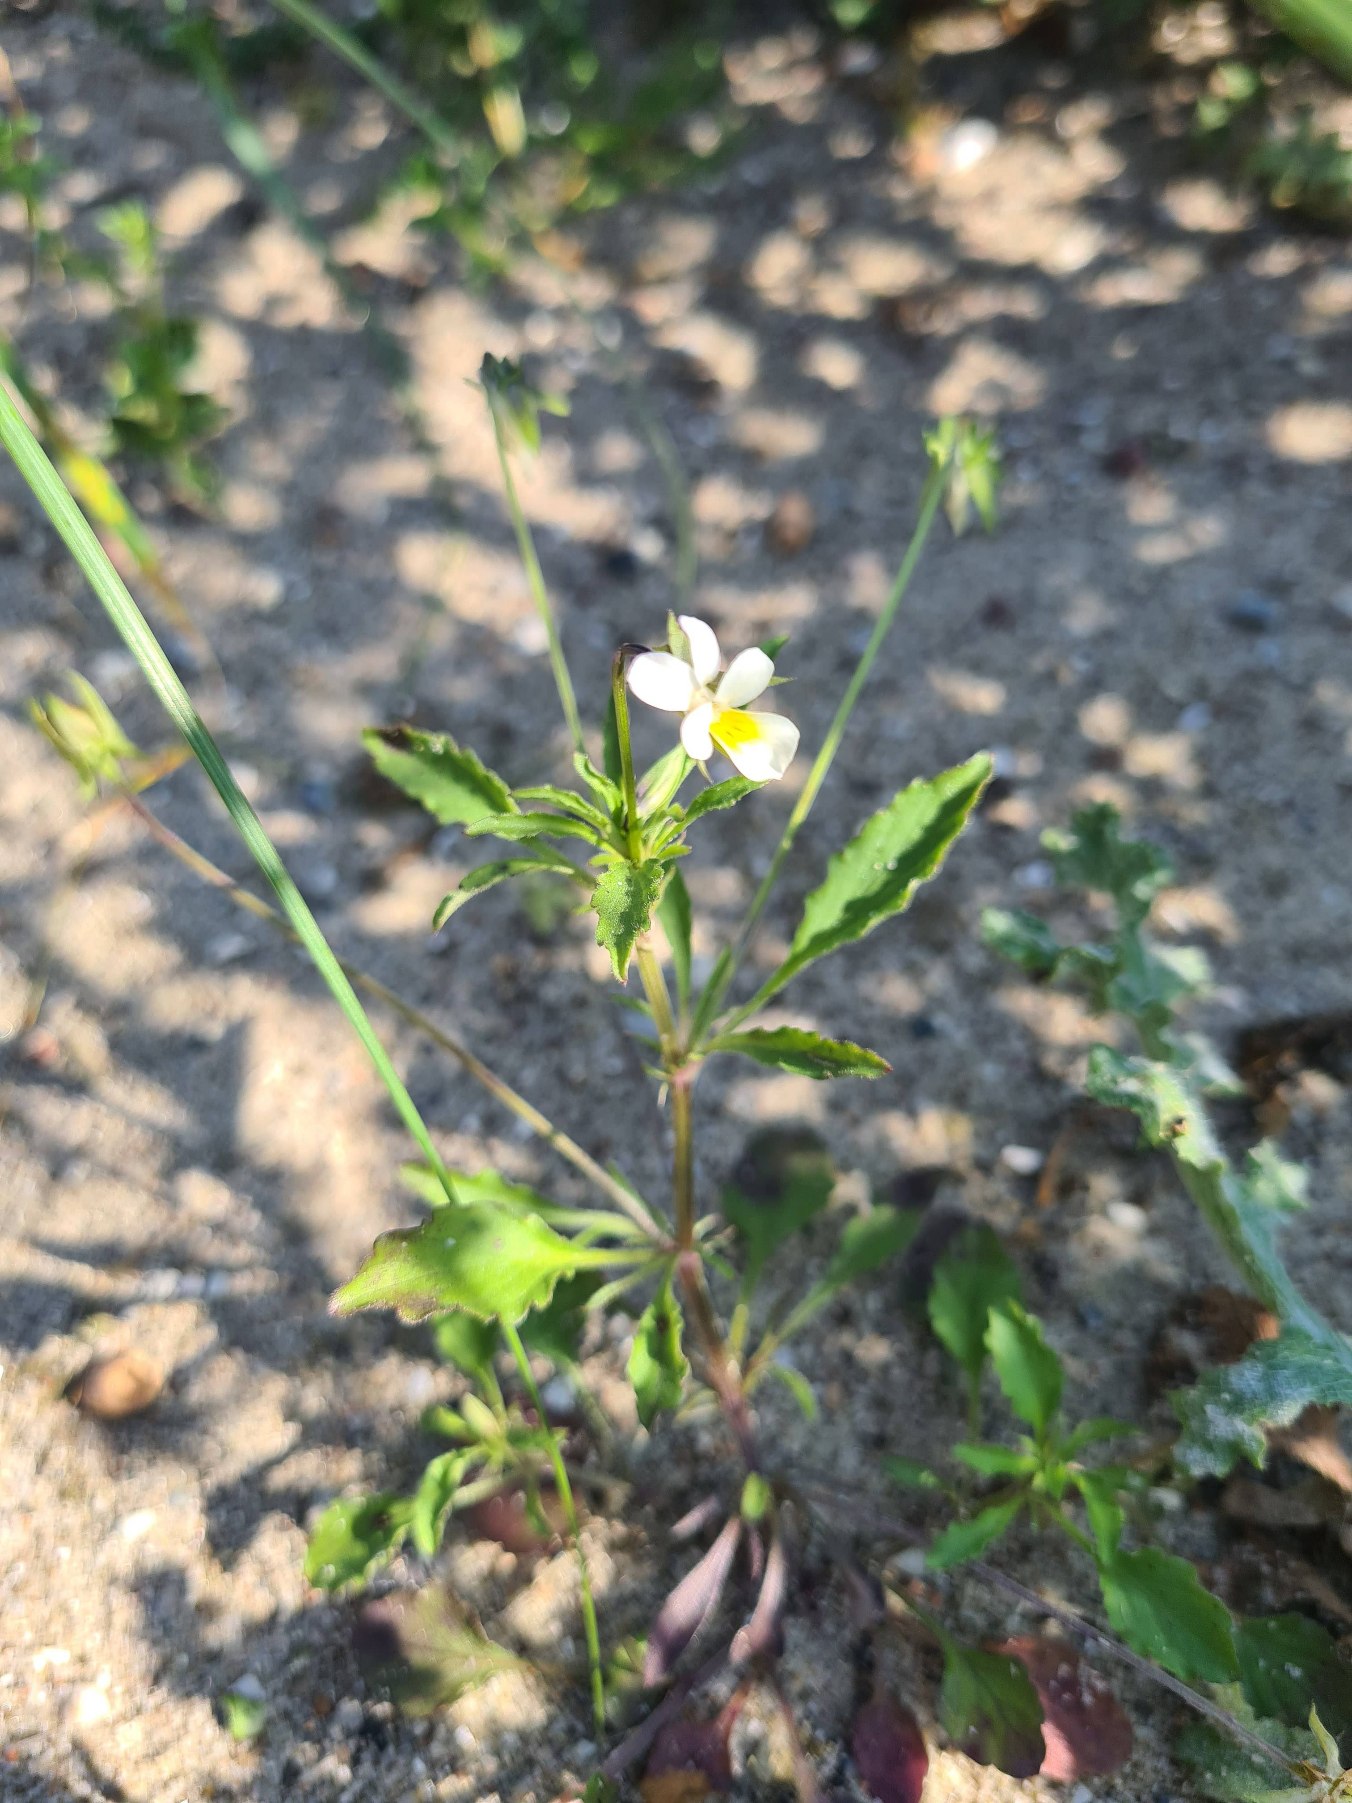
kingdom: Plantae
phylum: Tracheophyta
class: Magnoliopsida
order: Malpighiales
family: Violaceae
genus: Viola
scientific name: Viola arvensis
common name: Ager-stedmoderblomst
